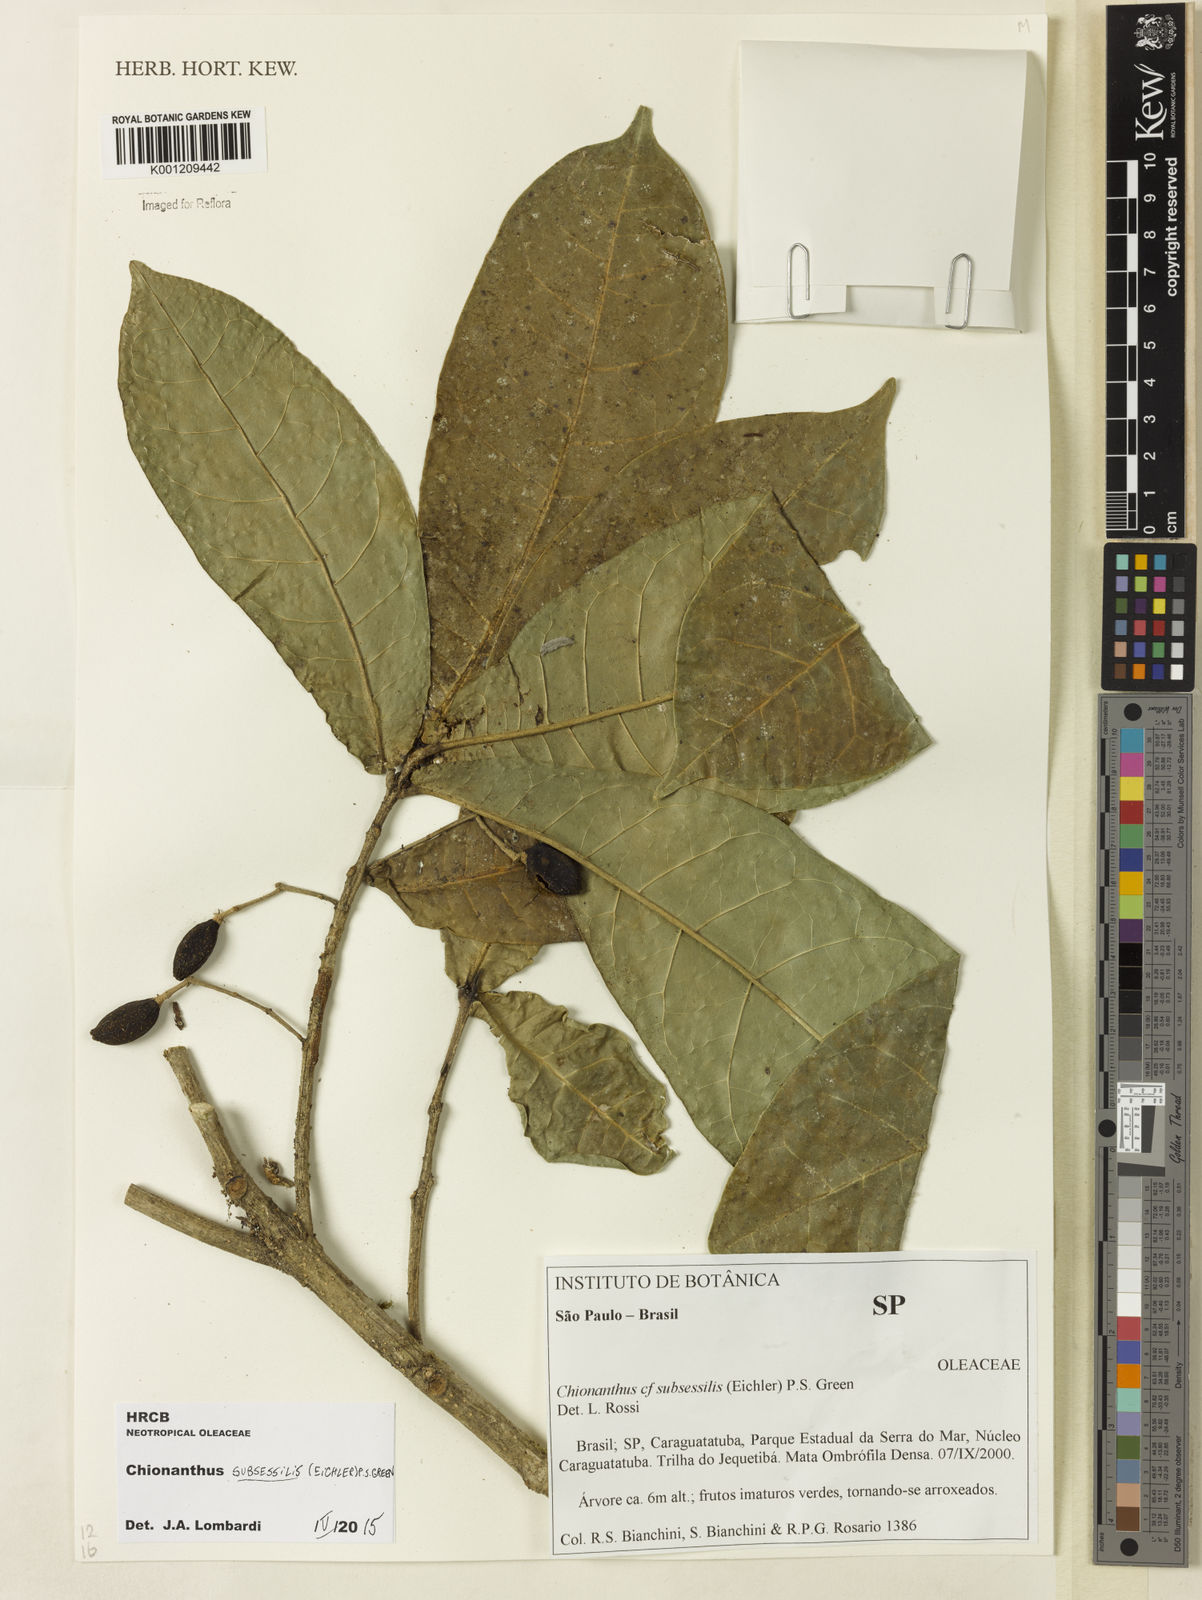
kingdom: Plantae
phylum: Tracheophyta
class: Magnoliopsida
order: Lamiales
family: Oleaceae
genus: Chionanthus
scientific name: Chionanthus subsessilis
